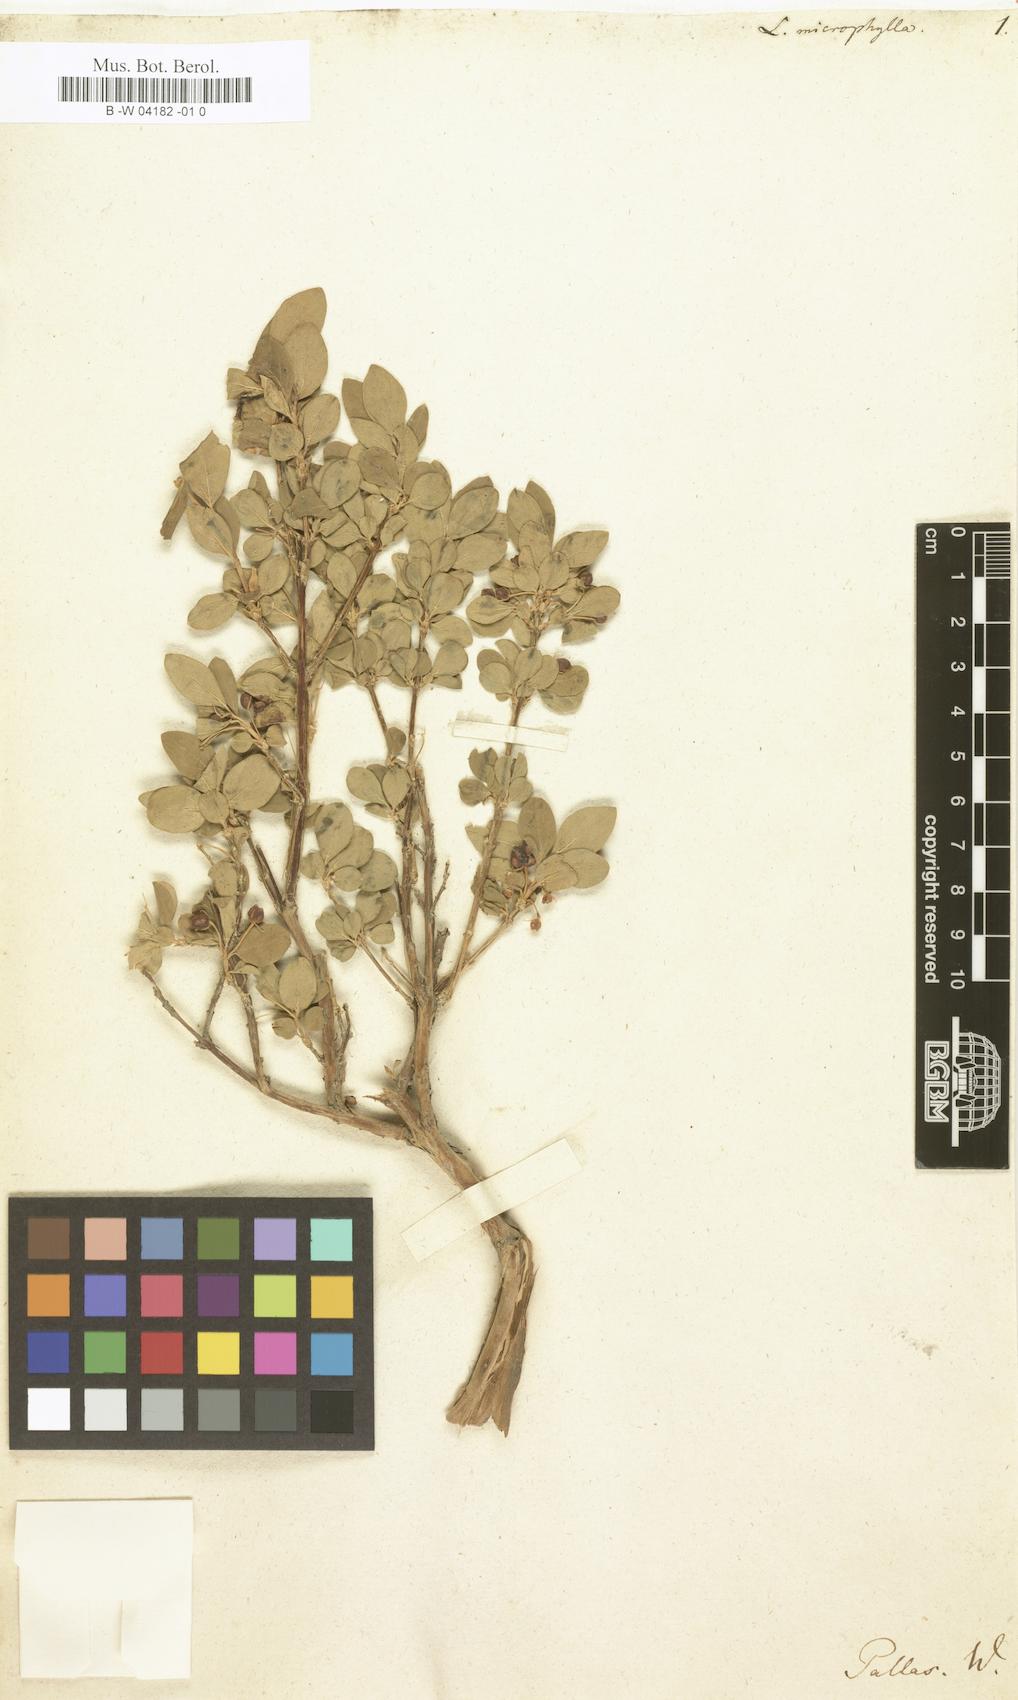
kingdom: Plantae
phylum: Tracheophyta
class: Magnoliopsida
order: Dipsacales
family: Caprifoliaceae
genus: Lonicera
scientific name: Lonicera microphylla
